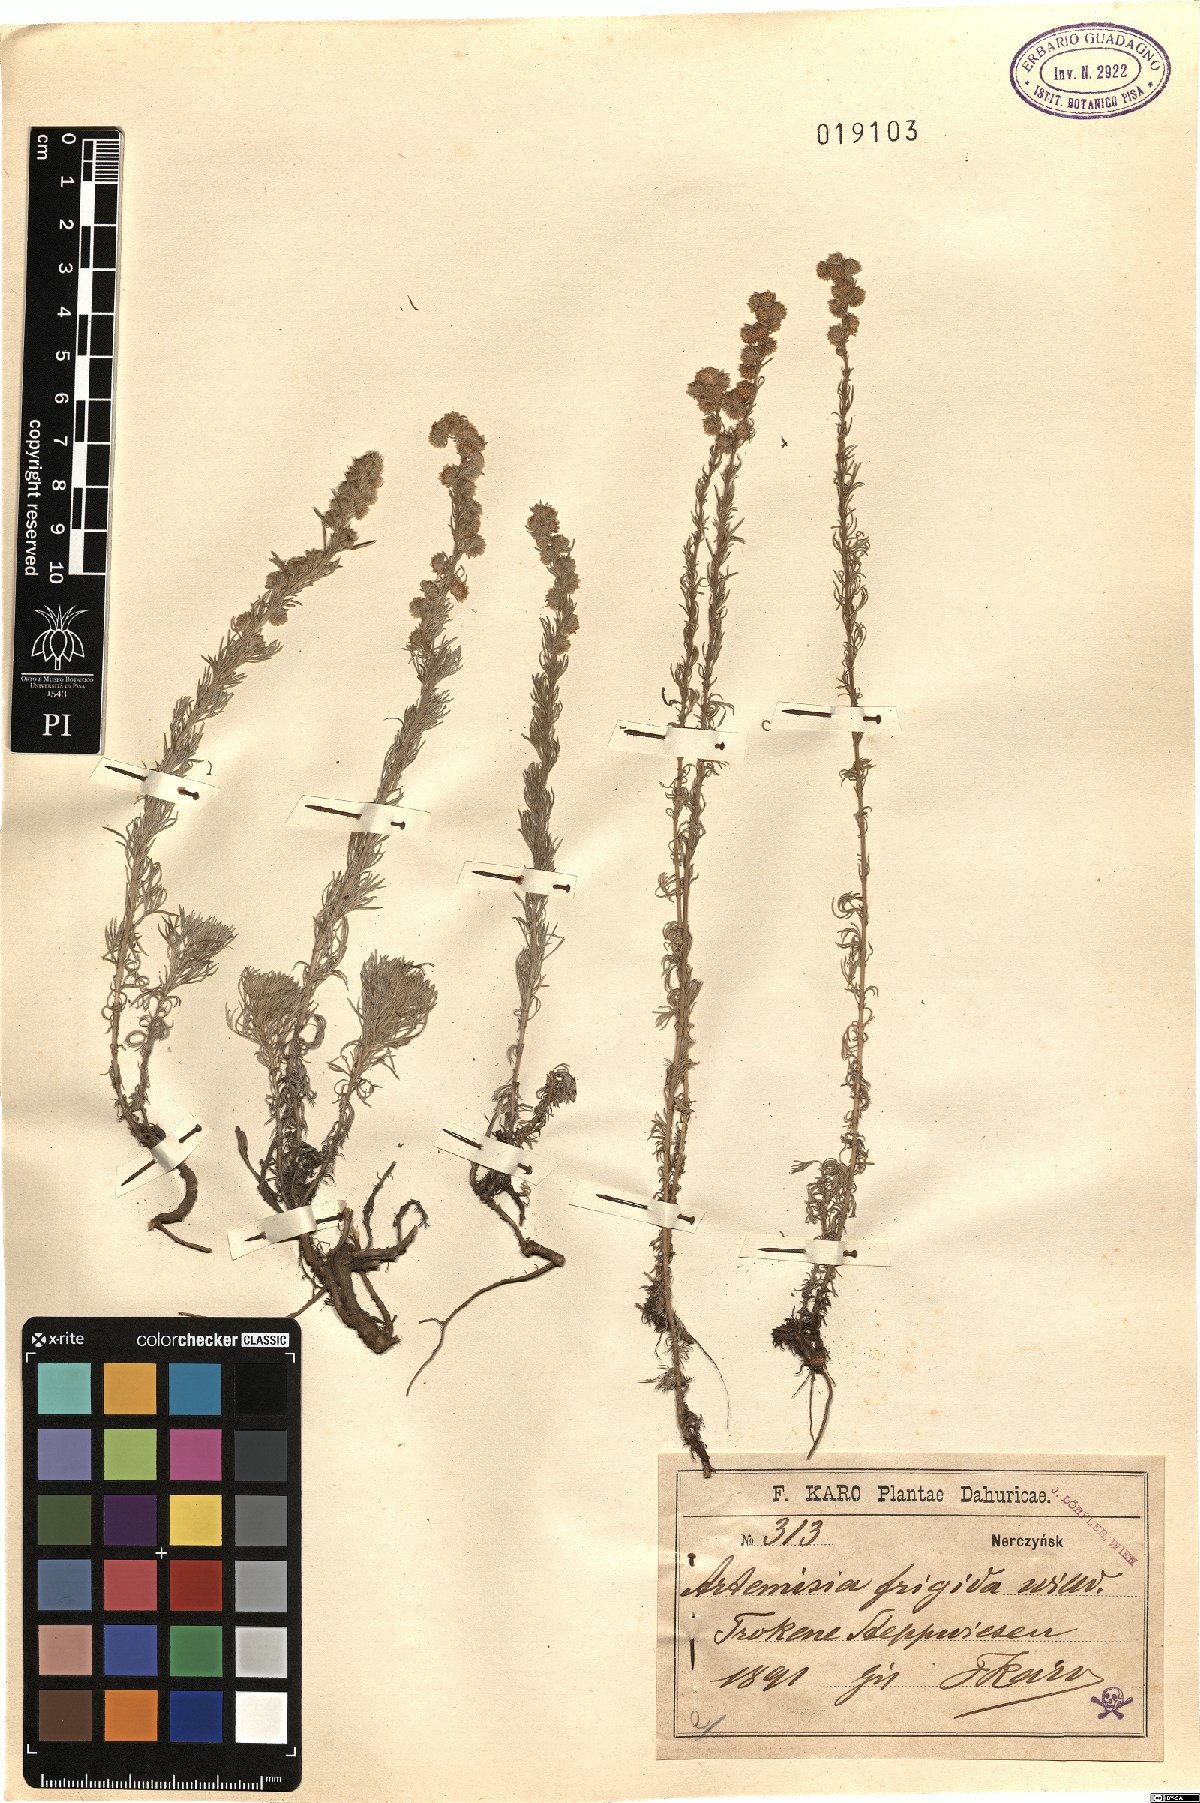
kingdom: Plantae
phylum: Tracheophyta
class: Magnoliopsida
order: Asterales
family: Asteraceae
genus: Artemisia
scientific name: Artemisia frigida
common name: Prairie sagewort
